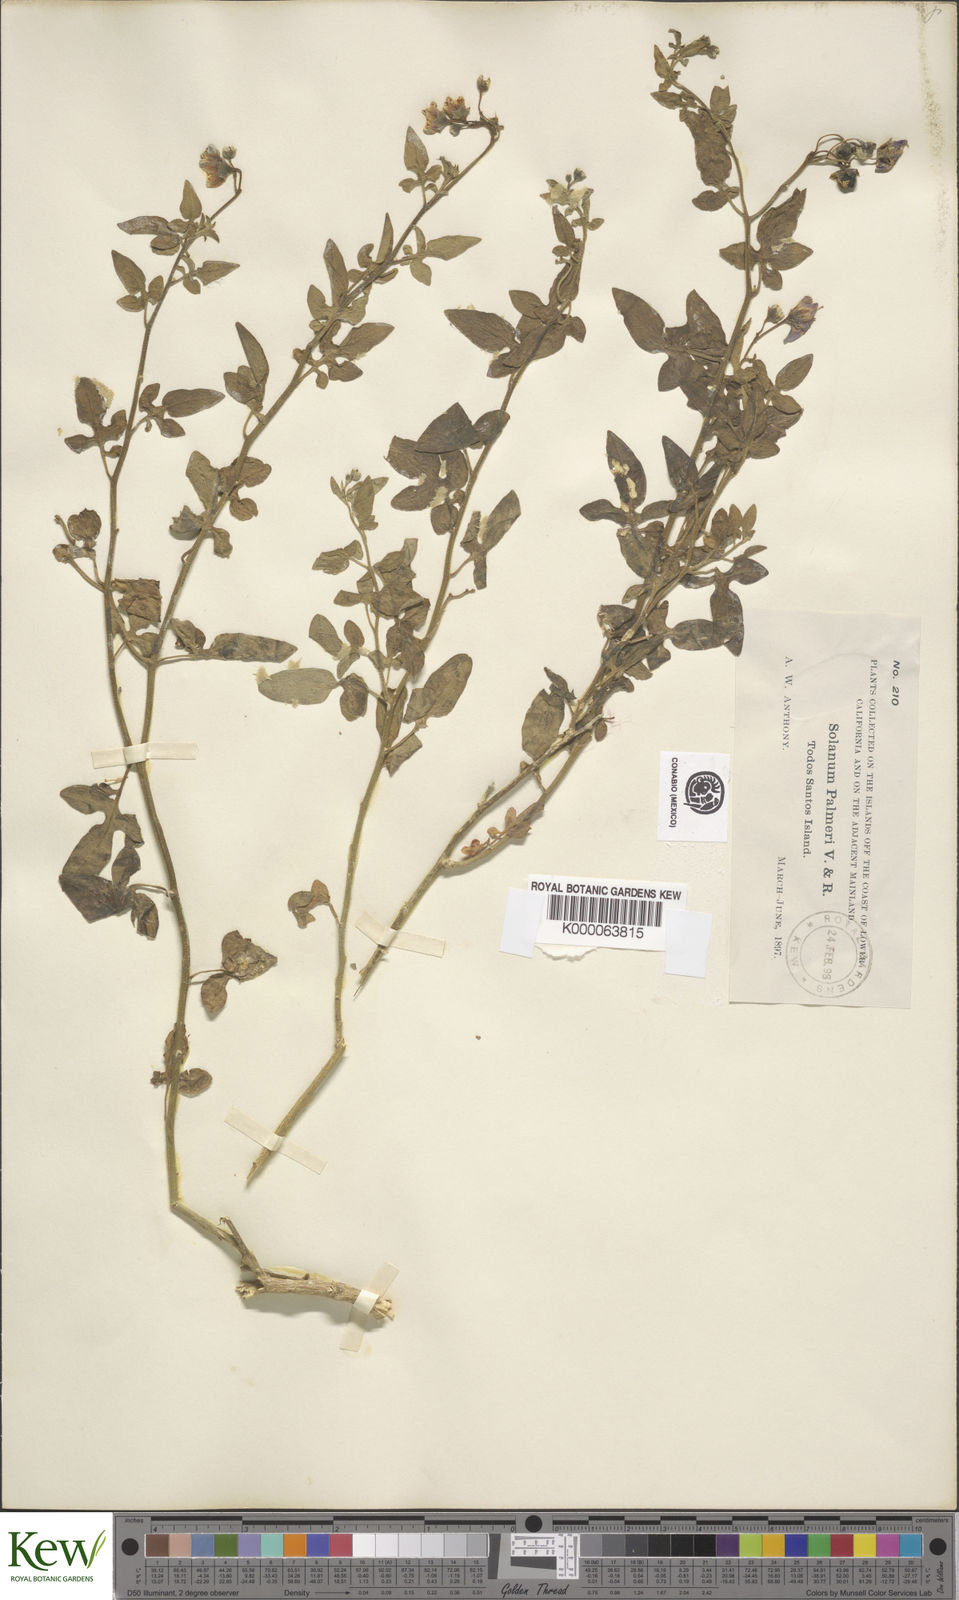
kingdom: Plantae
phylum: Tracheophyta
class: Magnoliopsida
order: Solanales
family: Solanaceae
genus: Solanum
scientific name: Solanum palmeri
